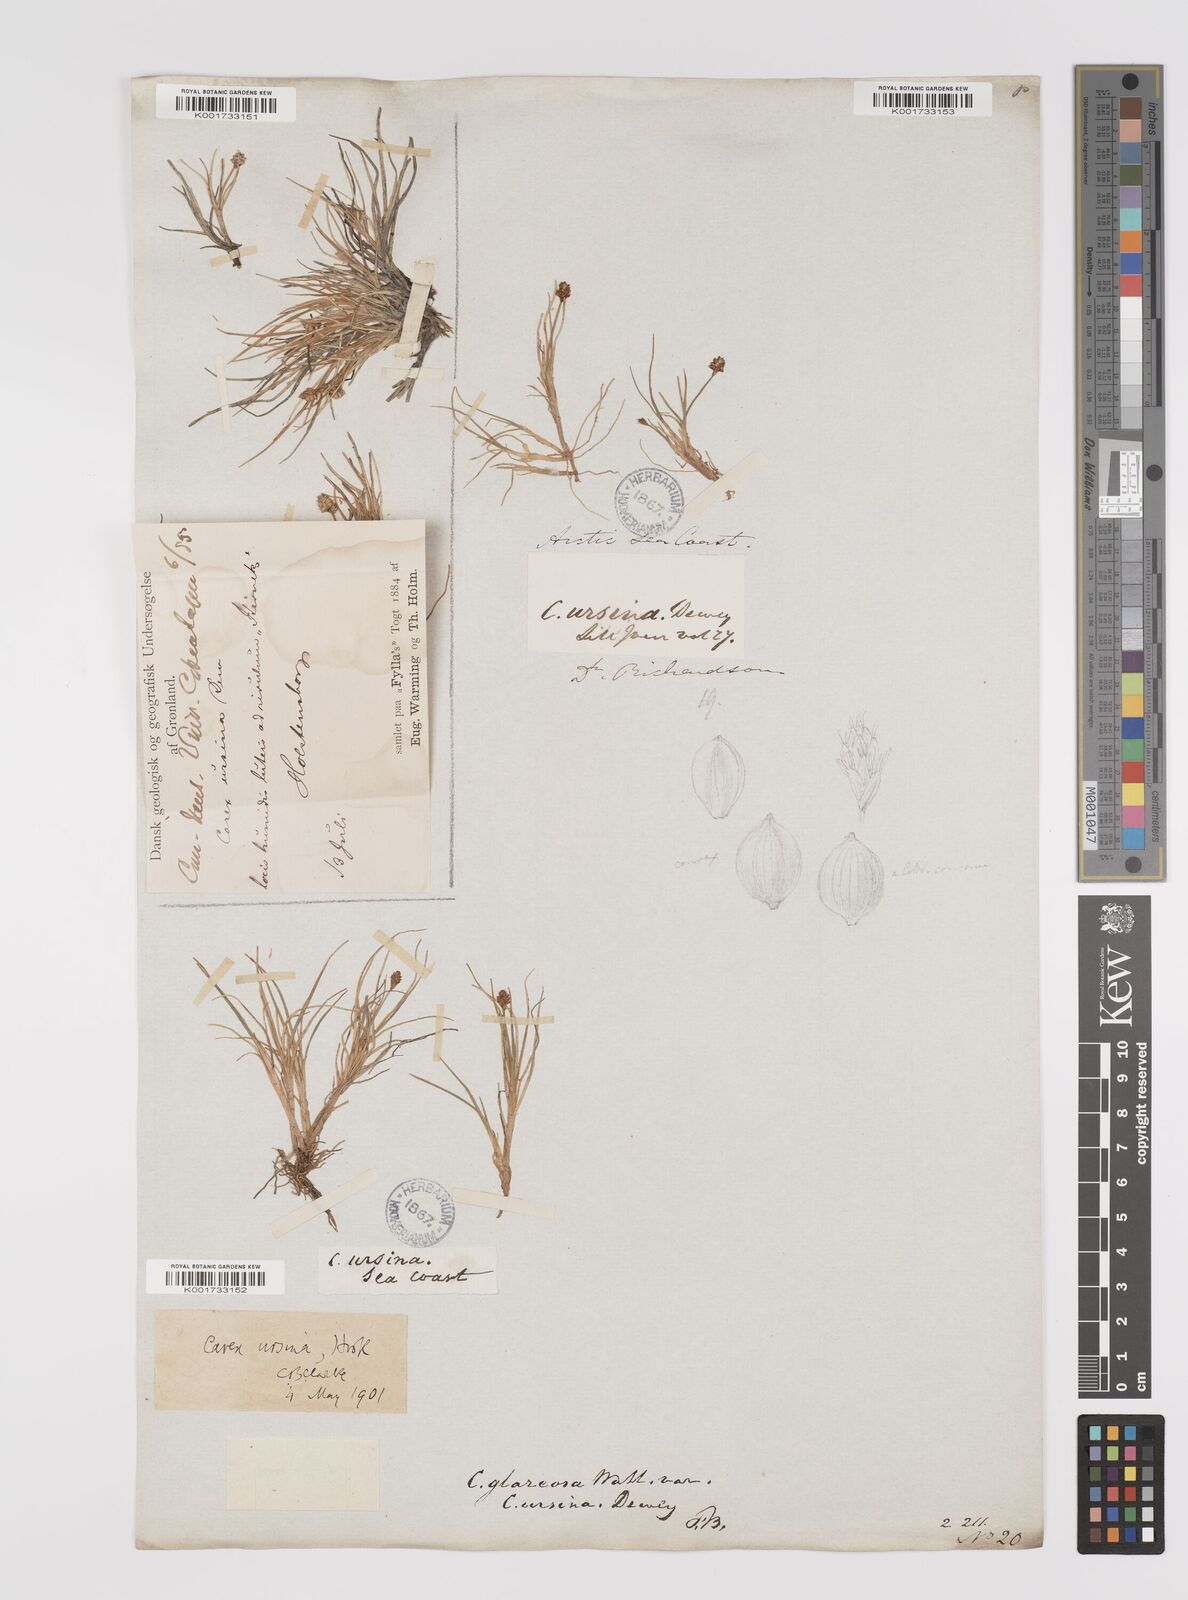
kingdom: Plantae
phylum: Tracheophyta
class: Liliopsida
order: Poales
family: Cyperaceae
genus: Carex
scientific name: Carex ursina
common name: Bear sedge
